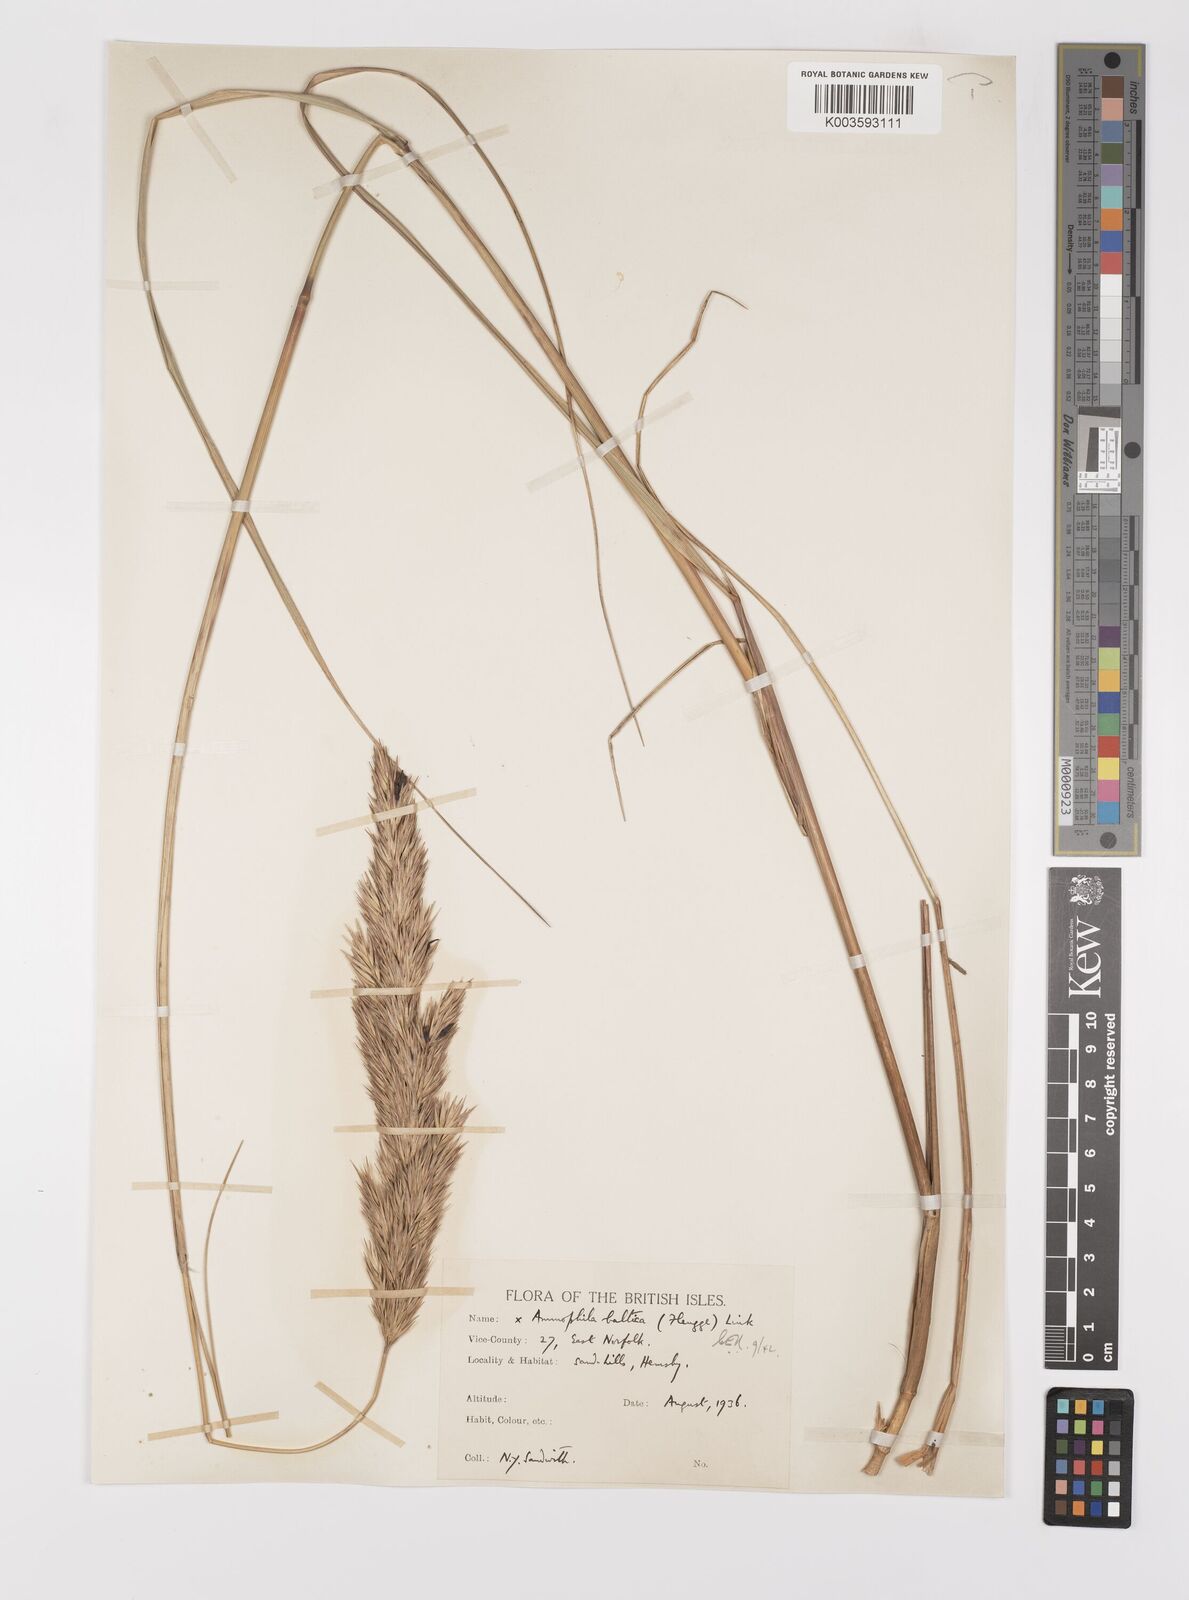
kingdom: Plantae
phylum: Tracheophyta
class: Liliopsida
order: Poales
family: Poaceae
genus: Calamagrostis
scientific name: Calamagrostis baltica
